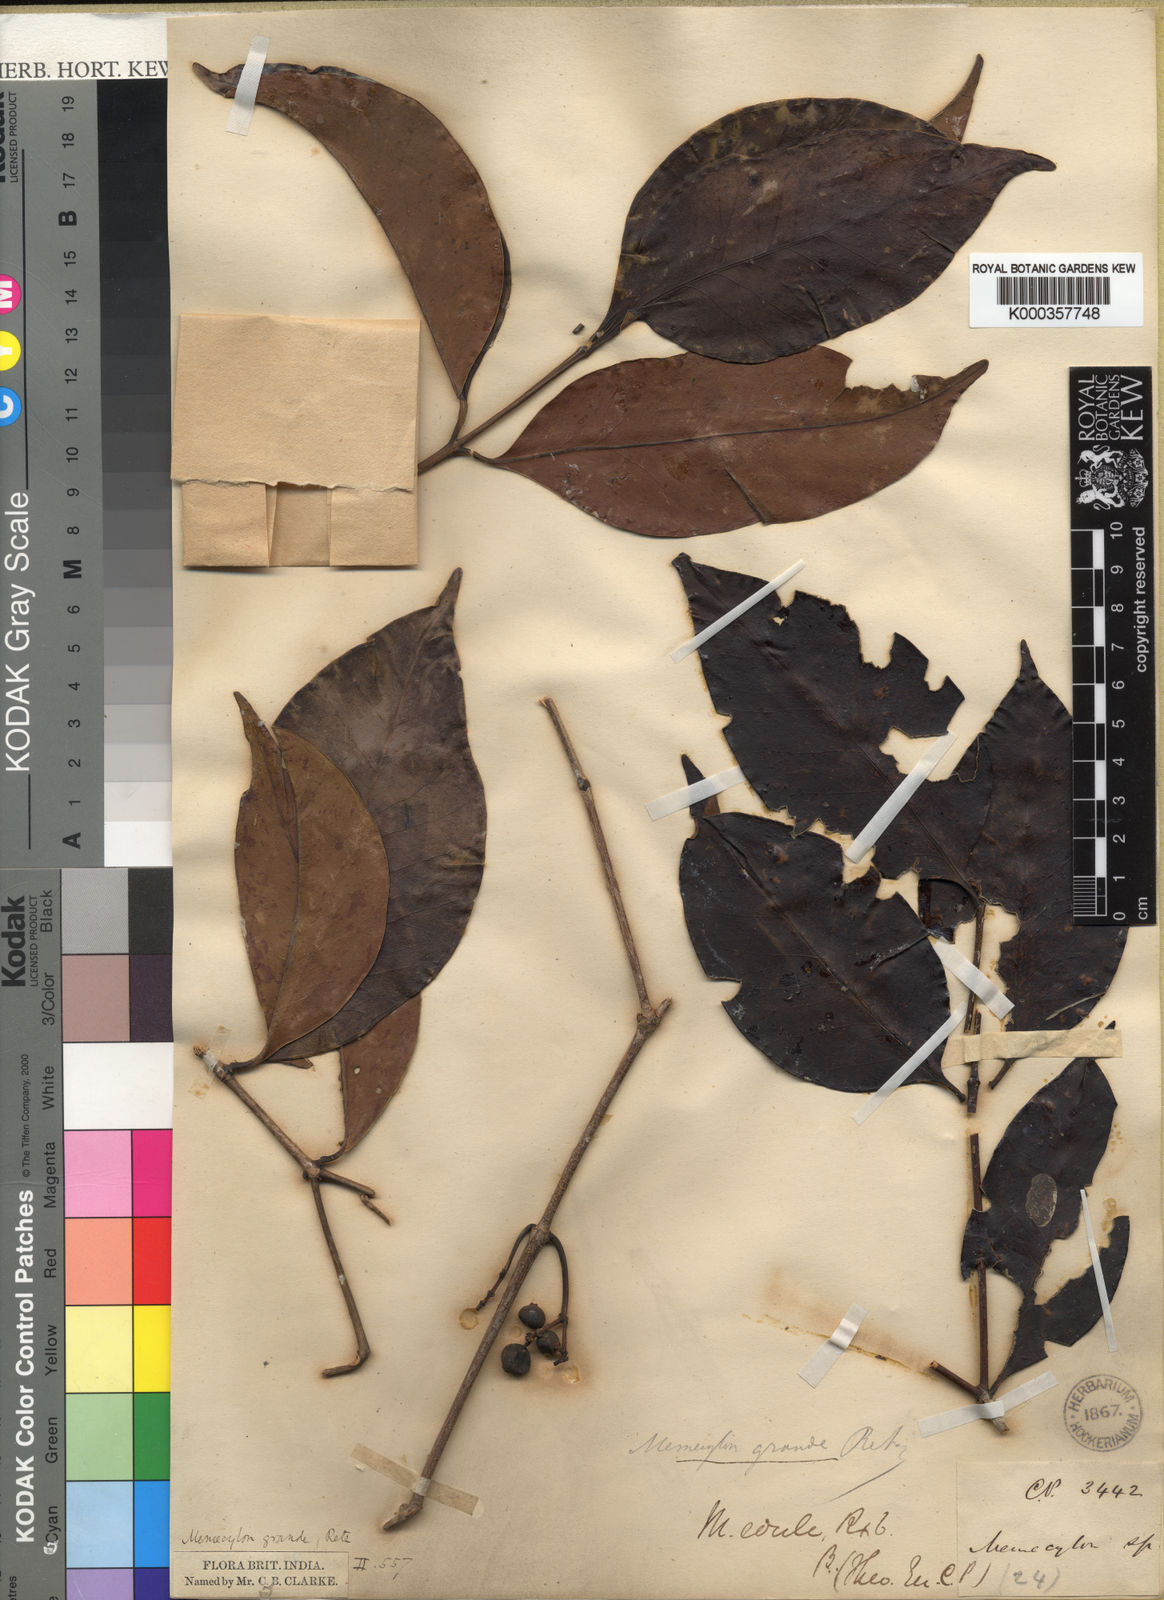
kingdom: Plantae
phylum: Tracheophyta
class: Magnoliopsida
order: Myrtales
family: Melastomataceae
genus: Memecylon
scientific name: Memecylon grande
